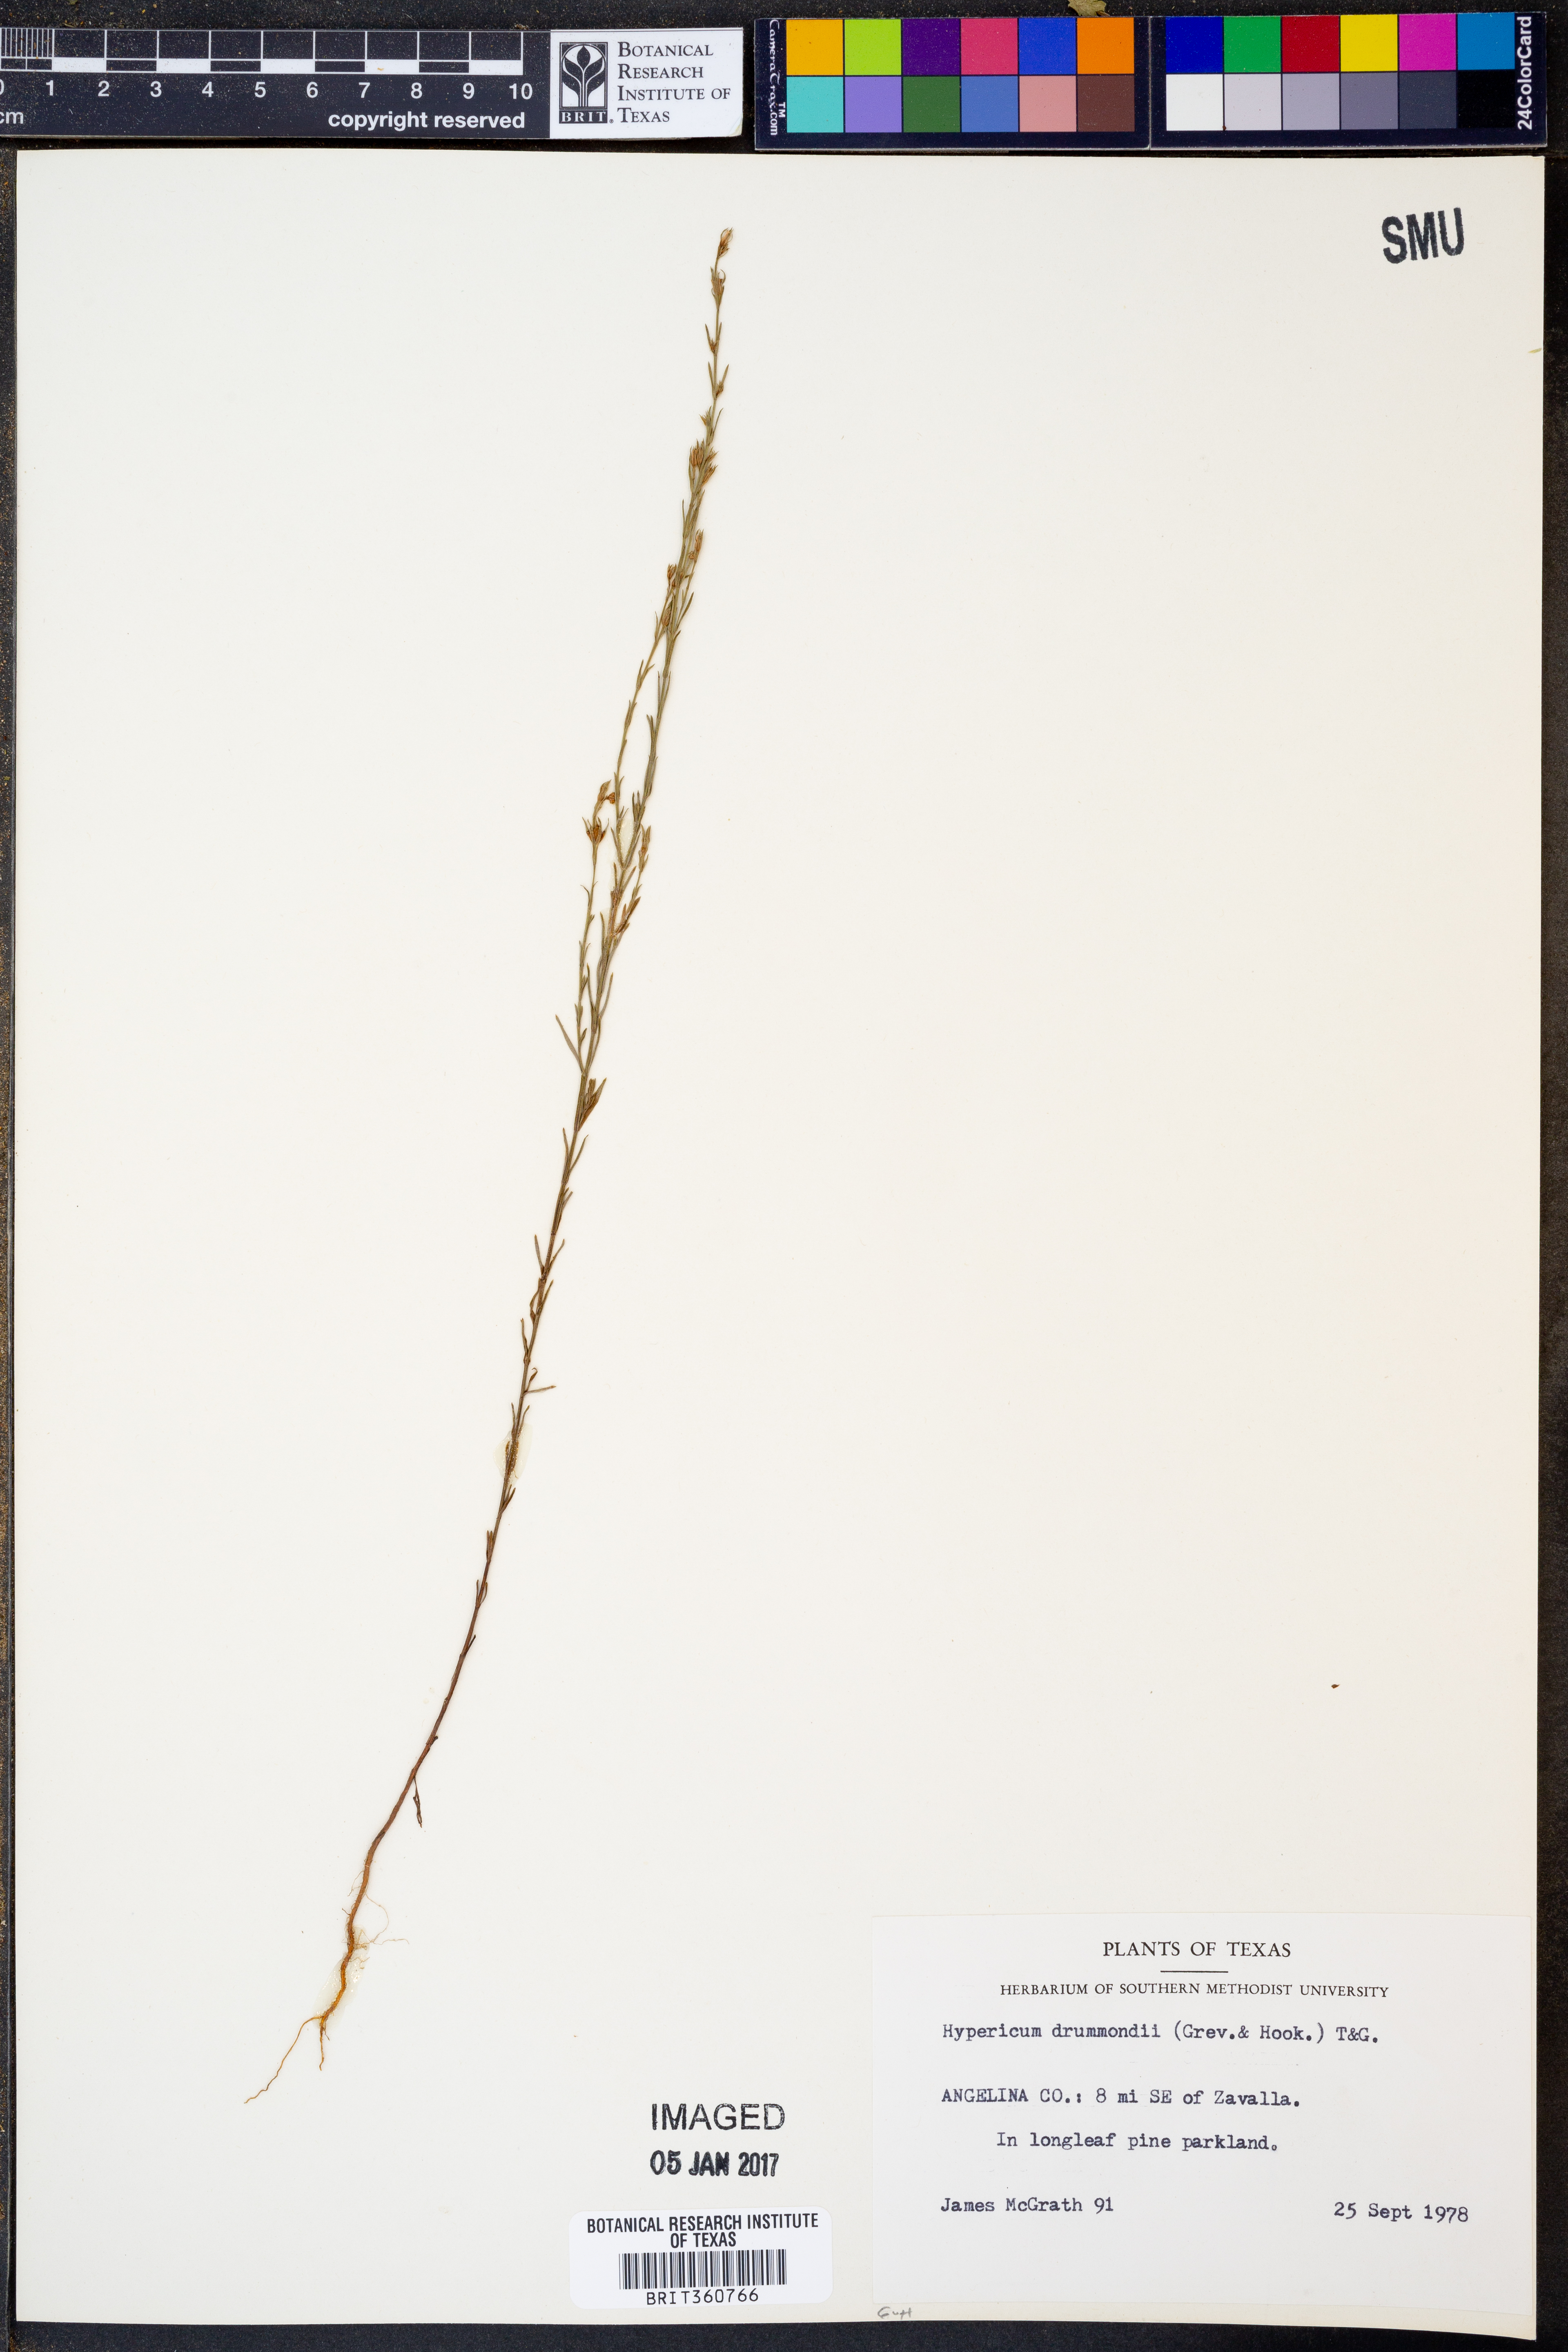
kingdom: Plantae
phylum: Tracheophyta
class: Magnoliopsida
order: Malpighiales
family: Hypericaceae
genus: Hypericum
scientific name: Hypericum drummondii
